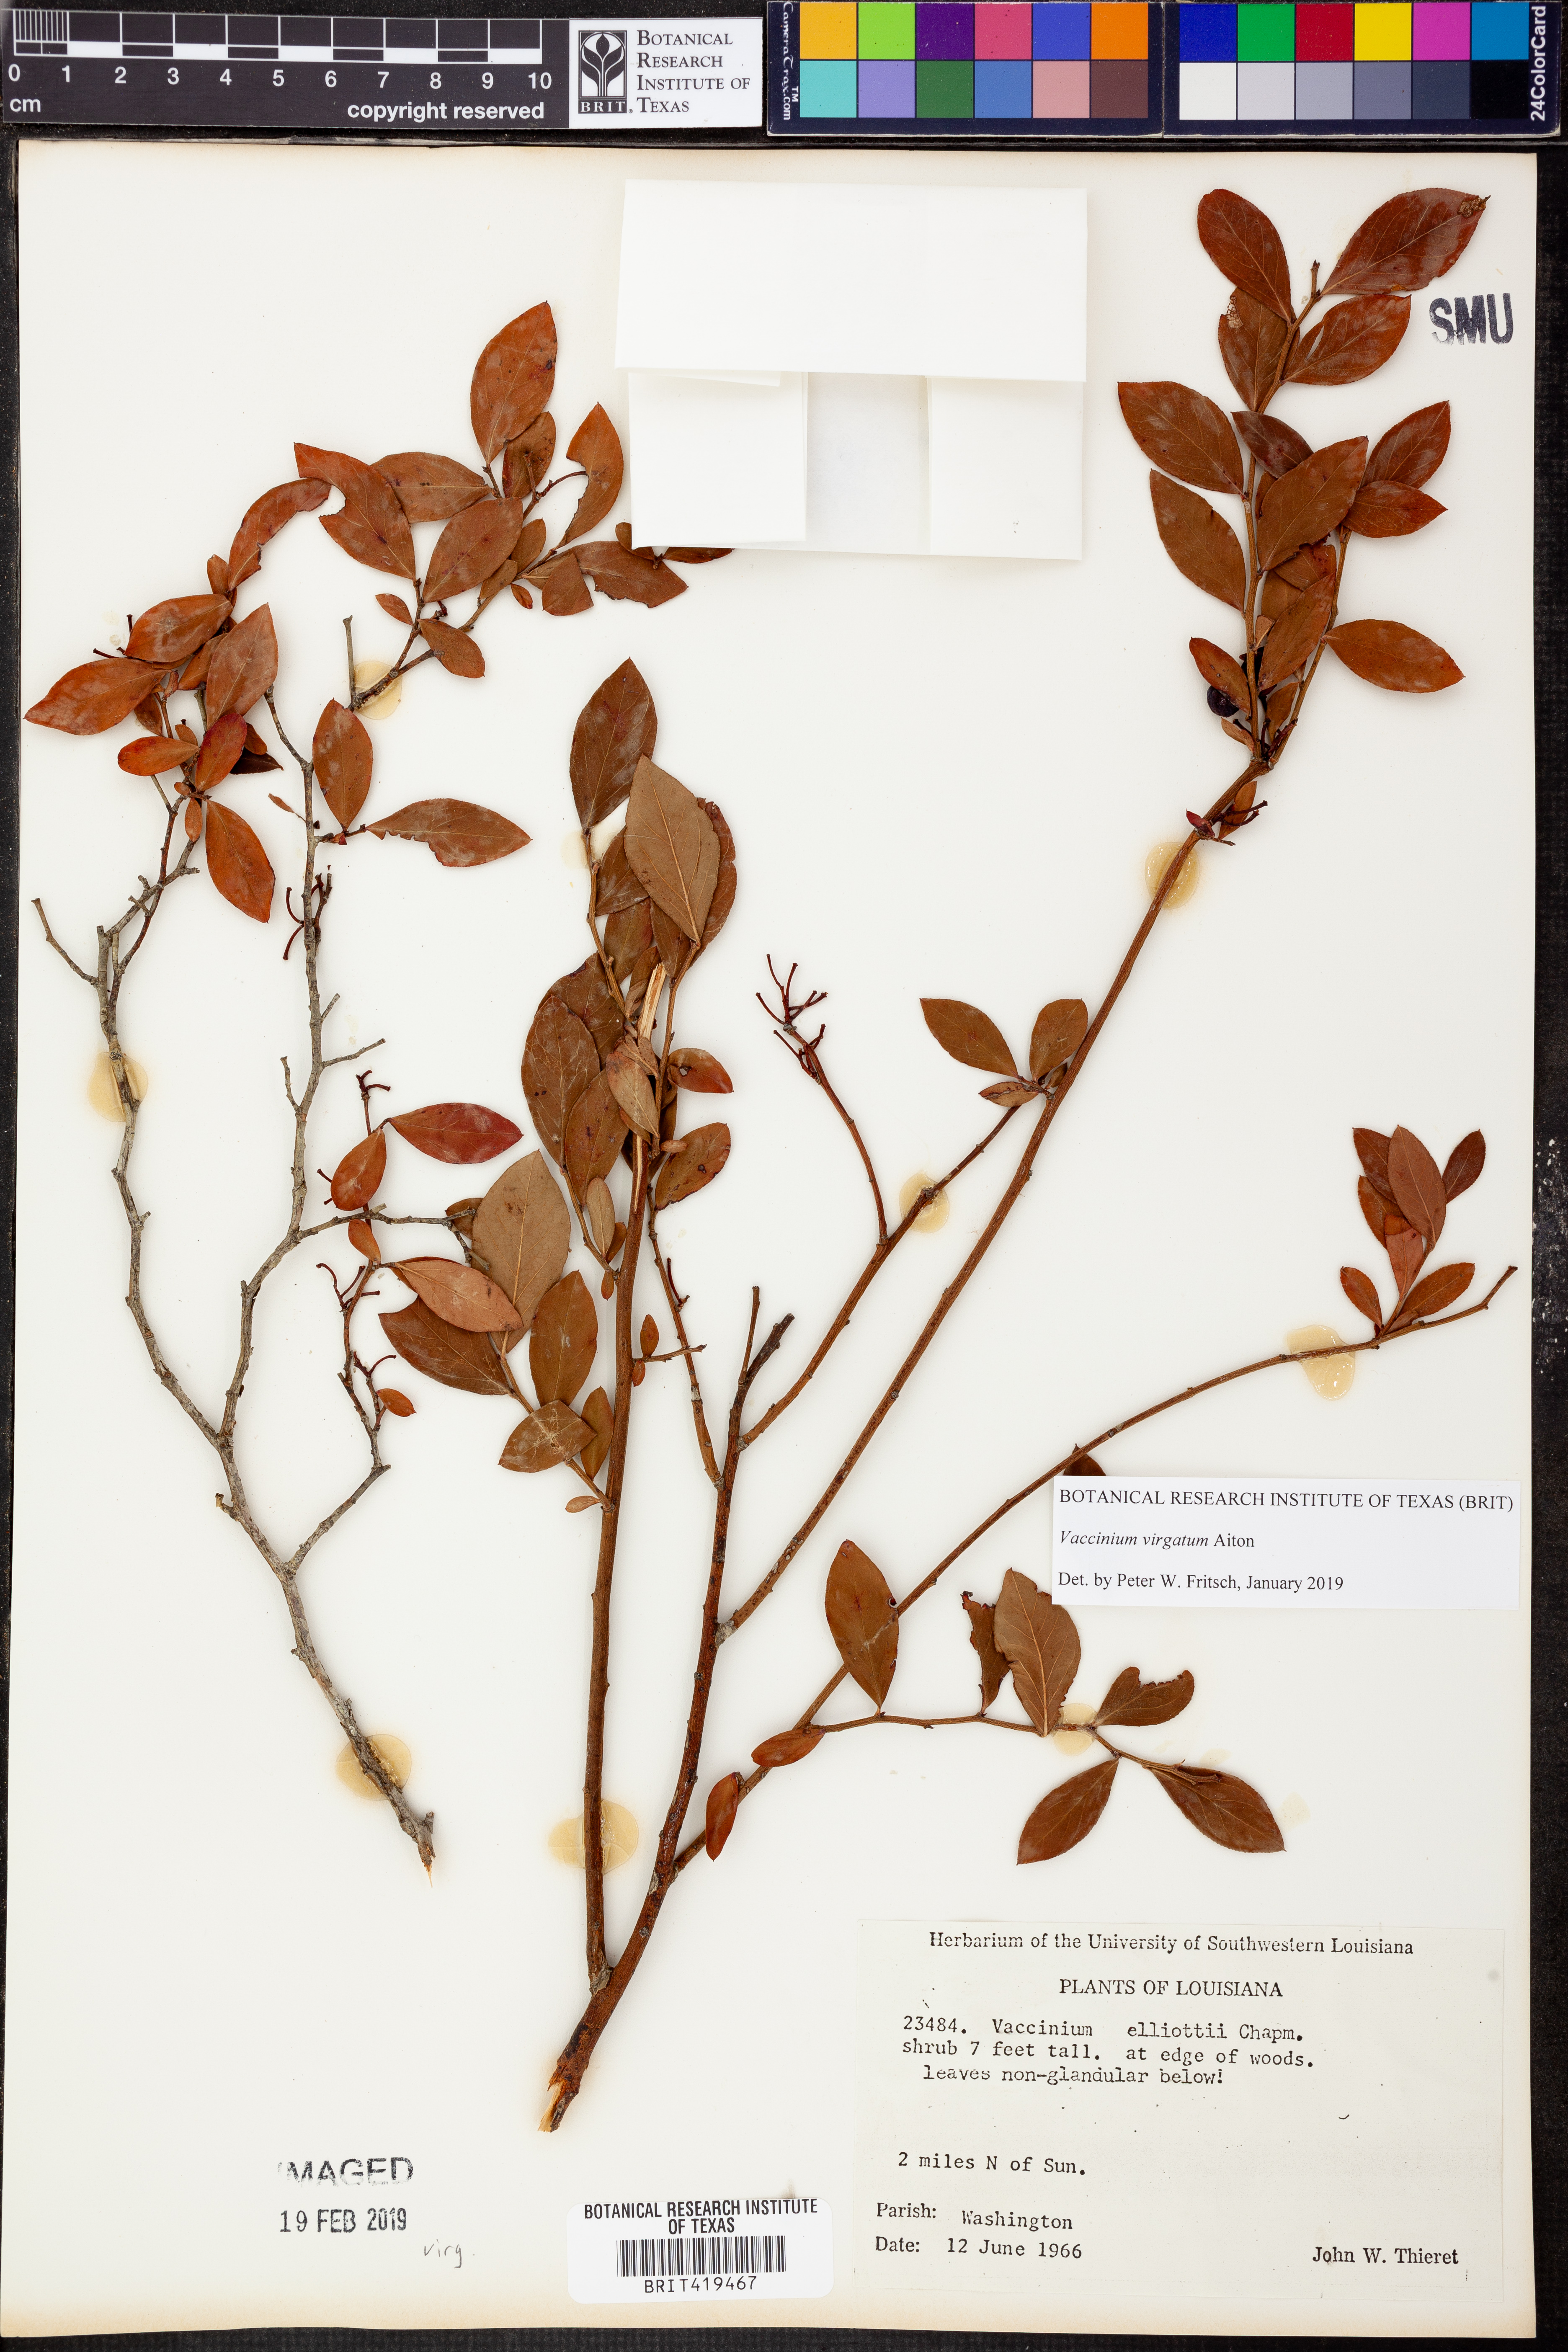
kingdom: Plantae
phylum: Tracheophyta
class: Magnoliopsida
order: Ericales
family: Ericaceae
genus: Vaccinium
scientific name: Vaccinium corymbosum
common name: Blueberry
